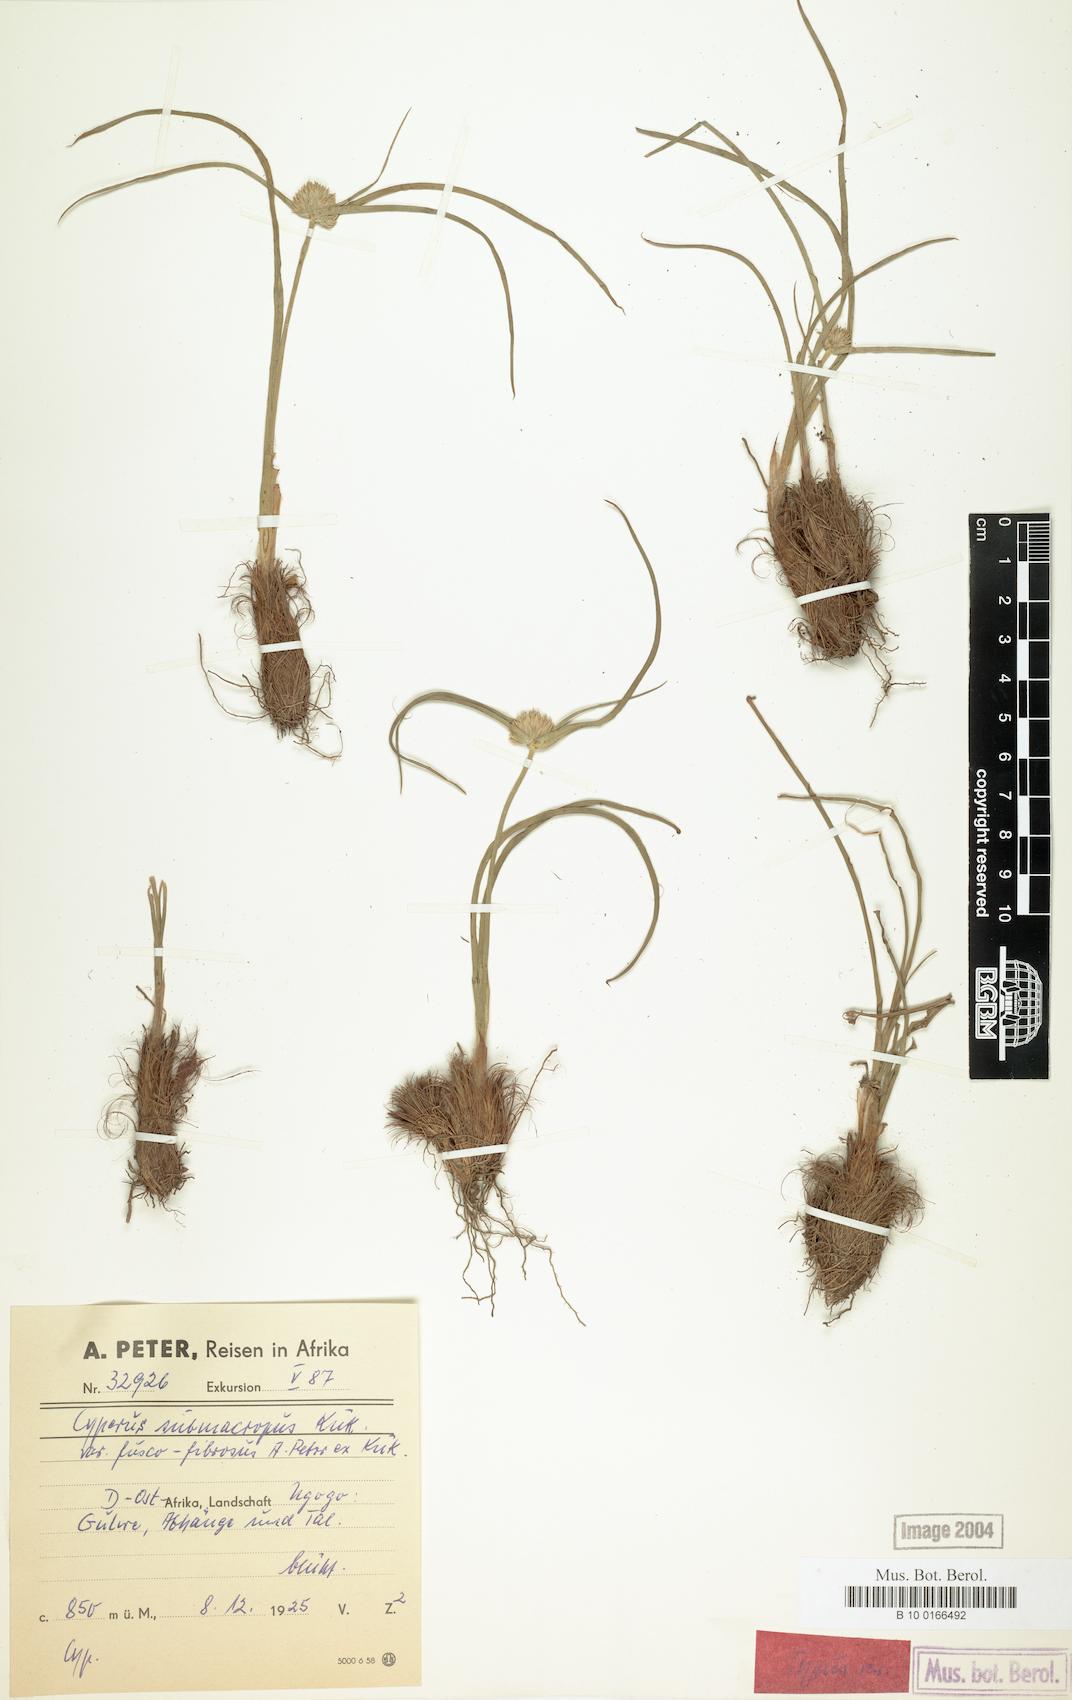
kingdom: Plantae
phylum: Tracheophyta
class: Liliopsida
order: Poales
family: Cyperaceae
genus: Cyperus
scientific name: Cyperus mollipes
